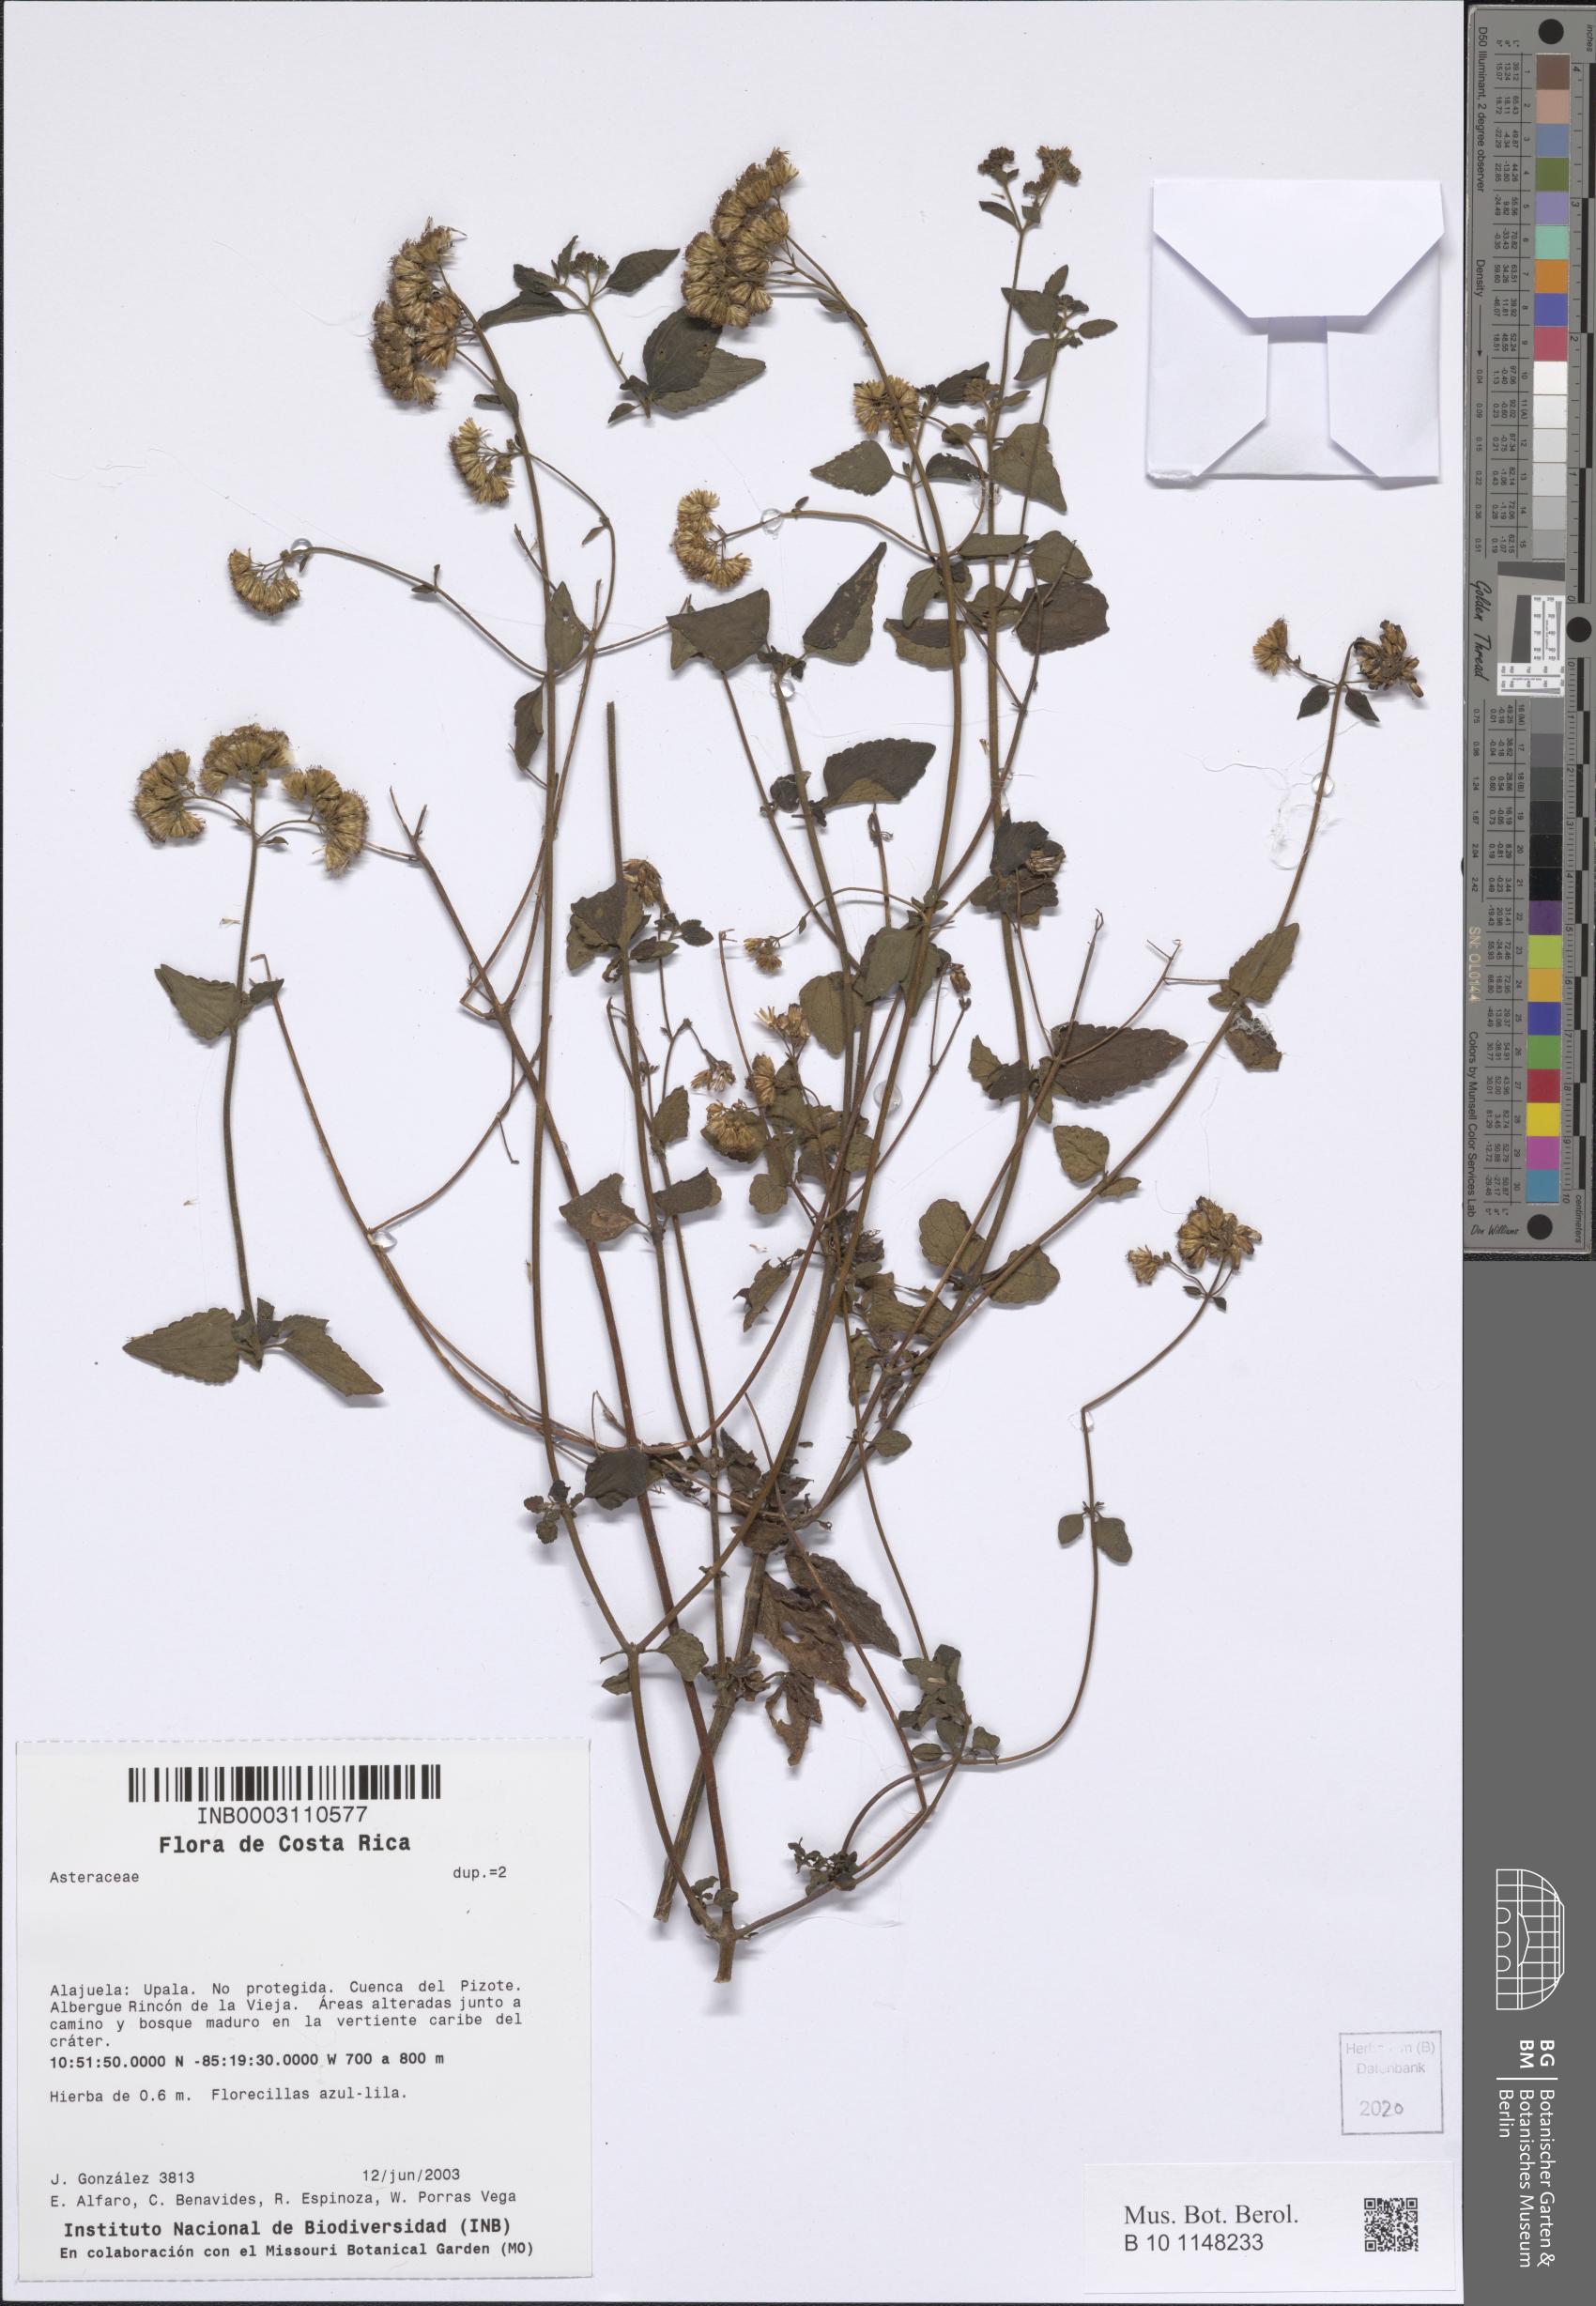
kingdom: Plantae
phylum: Tracheophyta
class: Magnoliopsida
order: Asterales
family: Asteraceae
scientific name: Asteraceae
